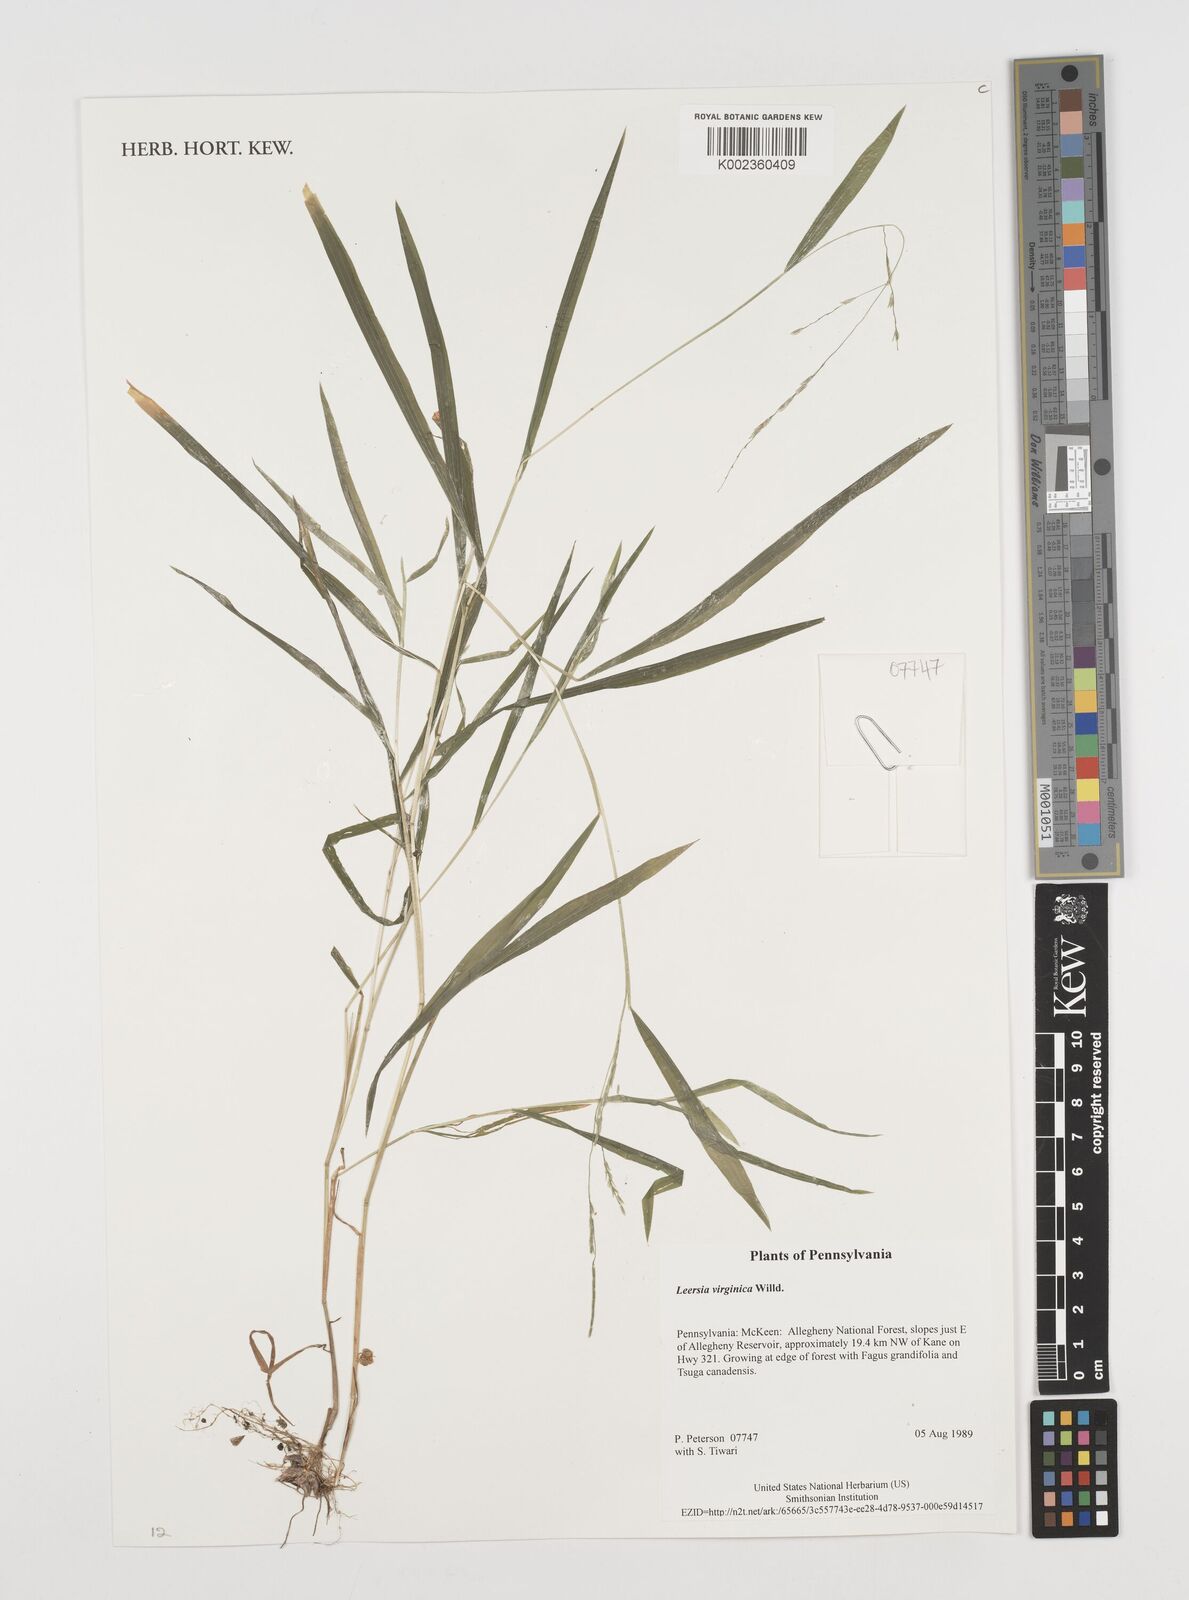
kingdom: Plantae
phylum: Tracheophyta
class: Liliopsida
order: Poales
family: Poaceae
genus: Leersia
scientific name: Leersia virginica
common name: White cutgrass
